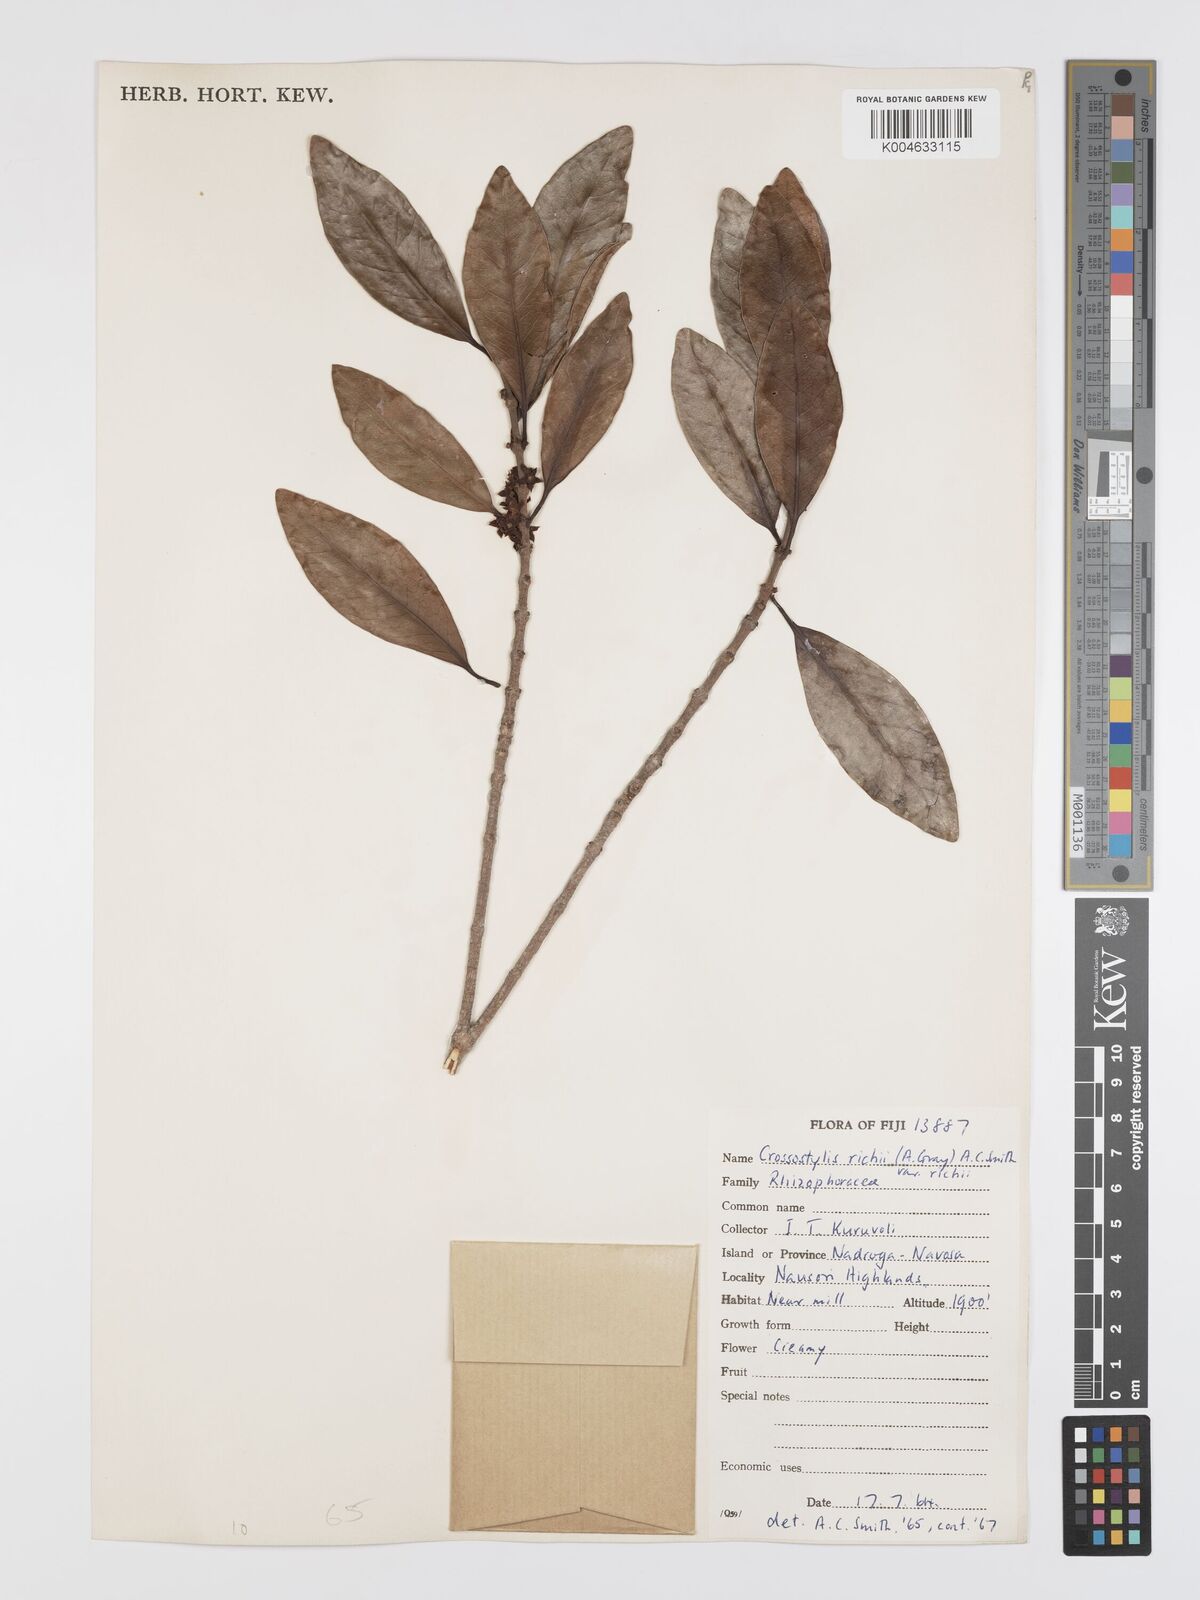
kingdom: Plantae
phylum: Tracheophyta
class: Magnoliopsida
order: Malpighiales
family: Rhizophoraceae
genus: Crossostylis
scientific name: Crossostylis richii
